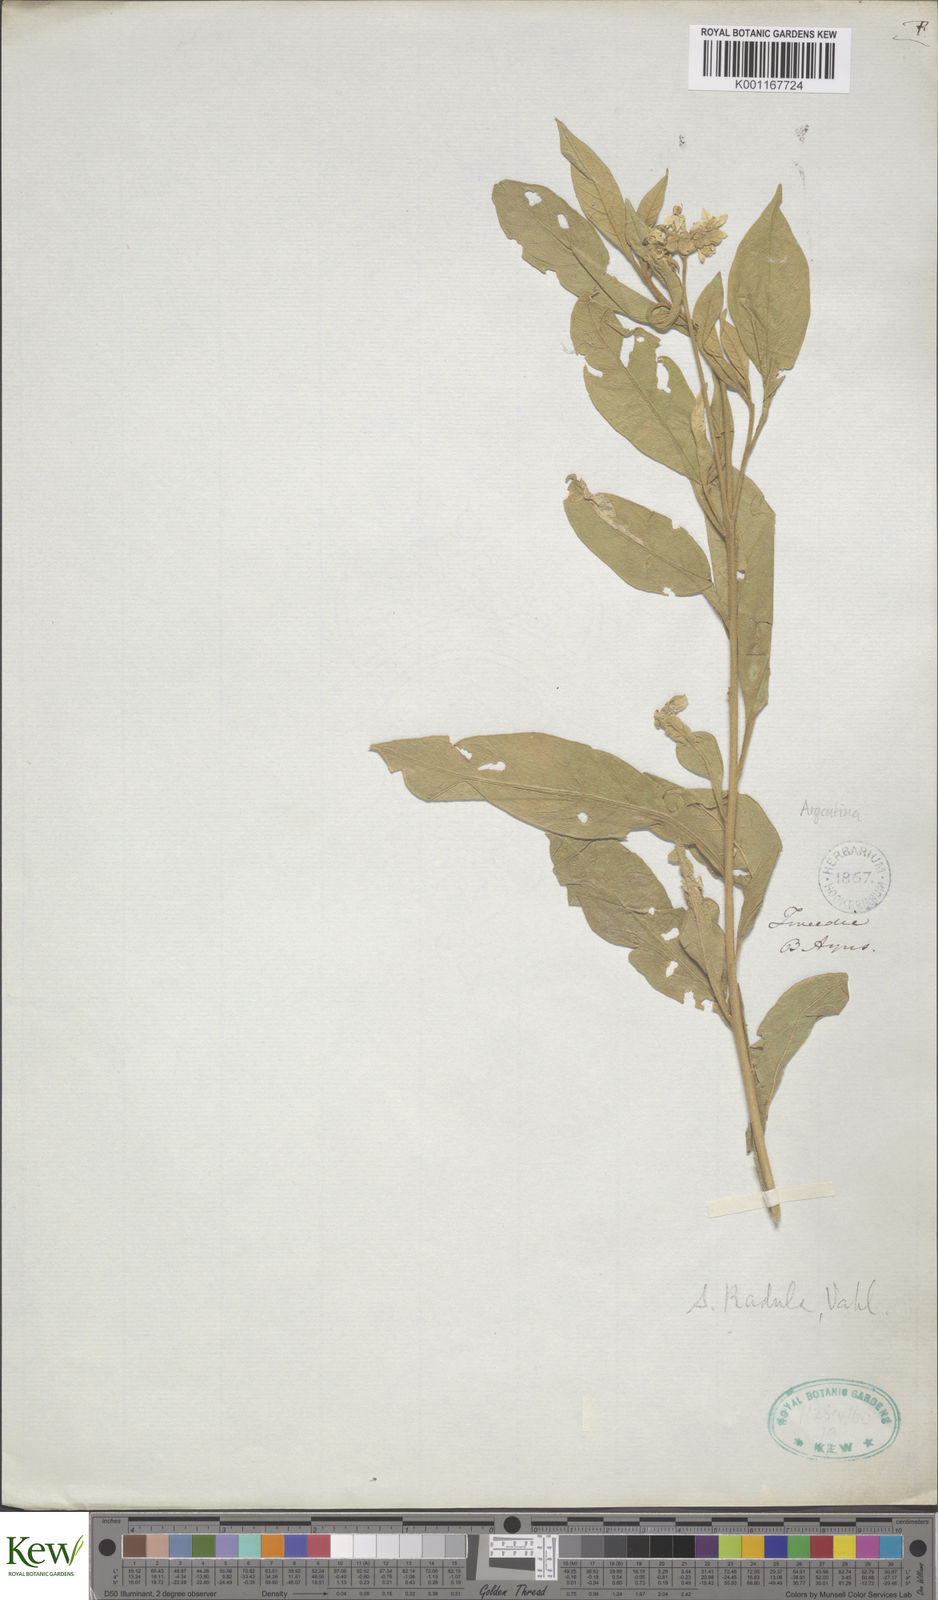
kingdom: Plantae
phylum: Tracheophyta
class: Magnoliopsida
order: Solanales
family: Solanaceae
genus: Solanum
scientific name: Solanum asperum
